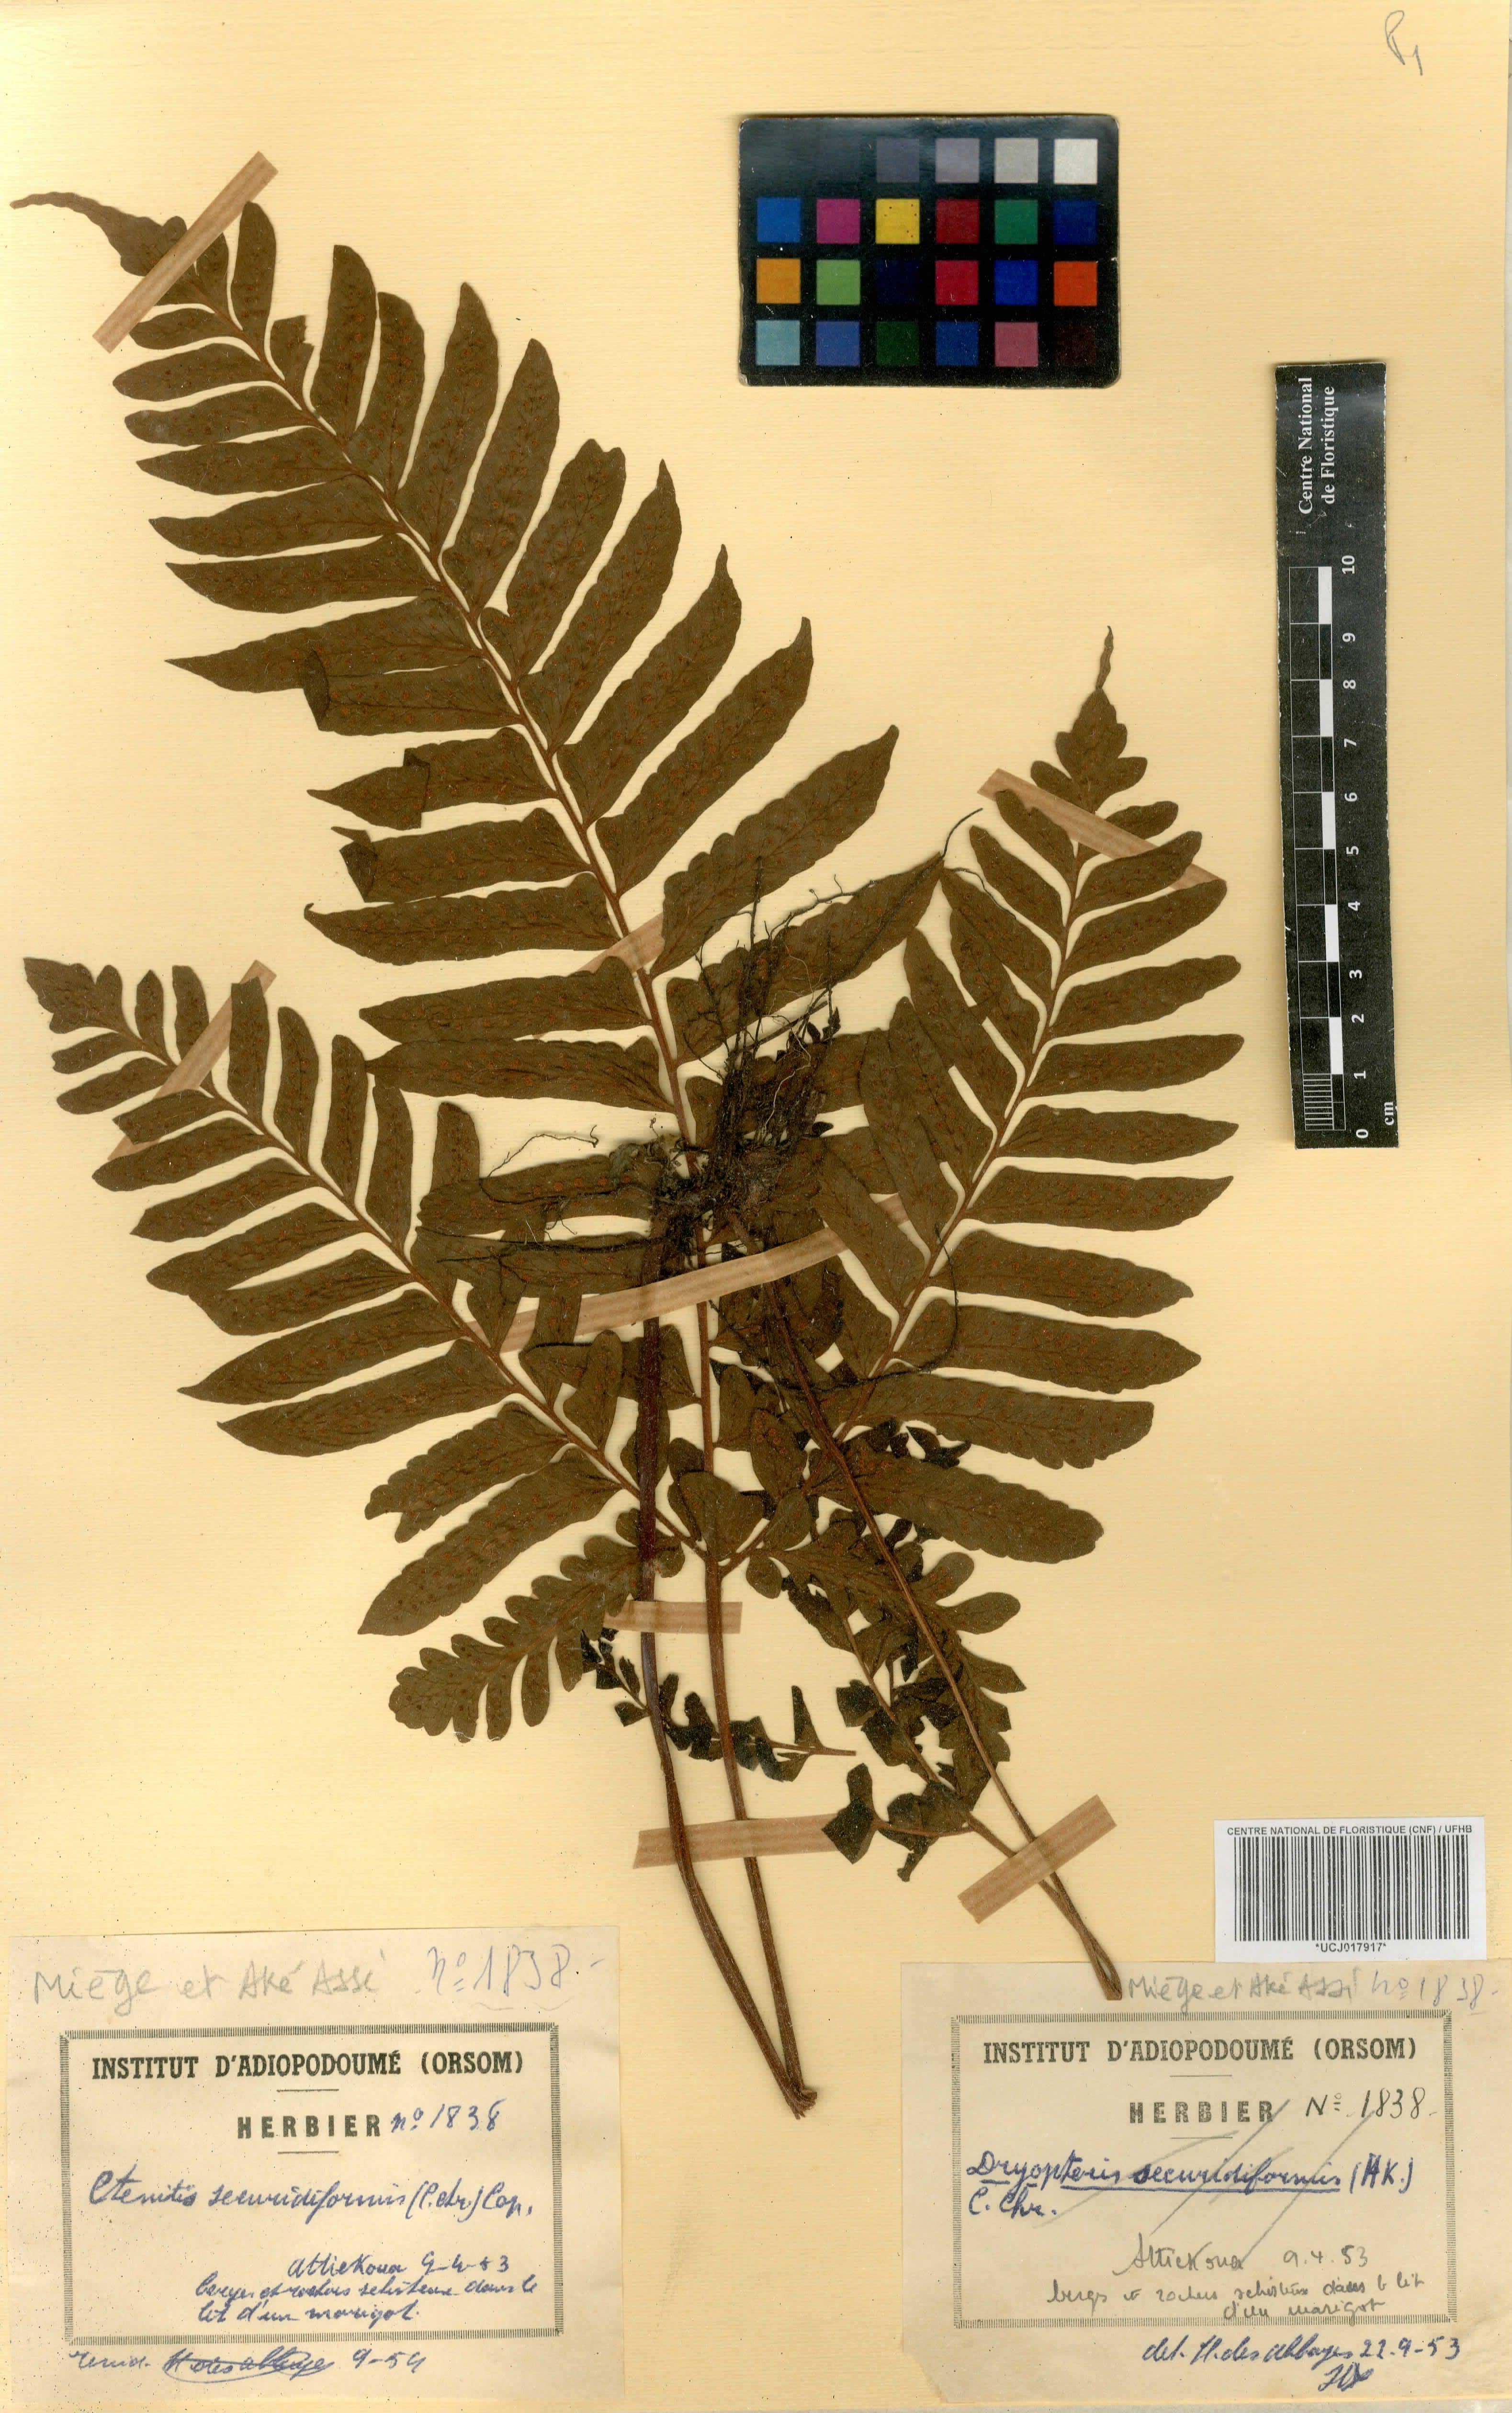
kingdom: Plantae
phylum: Tracheophyta
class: Polypodiopsida
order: Polypodiales
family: Tectariaceae
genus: Triplophyllum
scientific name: Triplophyllum securidiforme
